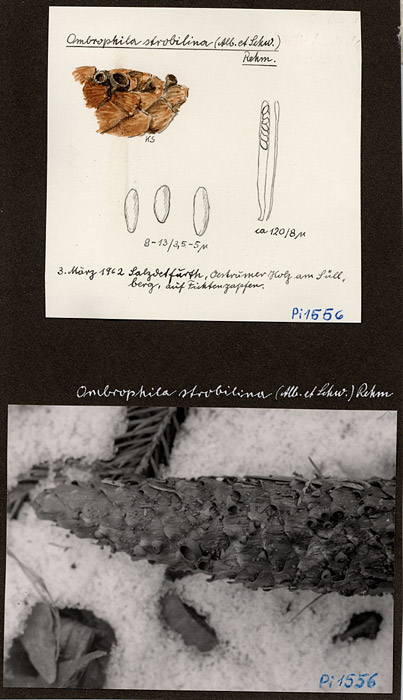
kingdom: Plantae
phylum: Tracheophyta
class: Pinopsida
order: Pinales
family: Pinaceae
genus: Picea
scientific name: Picea
